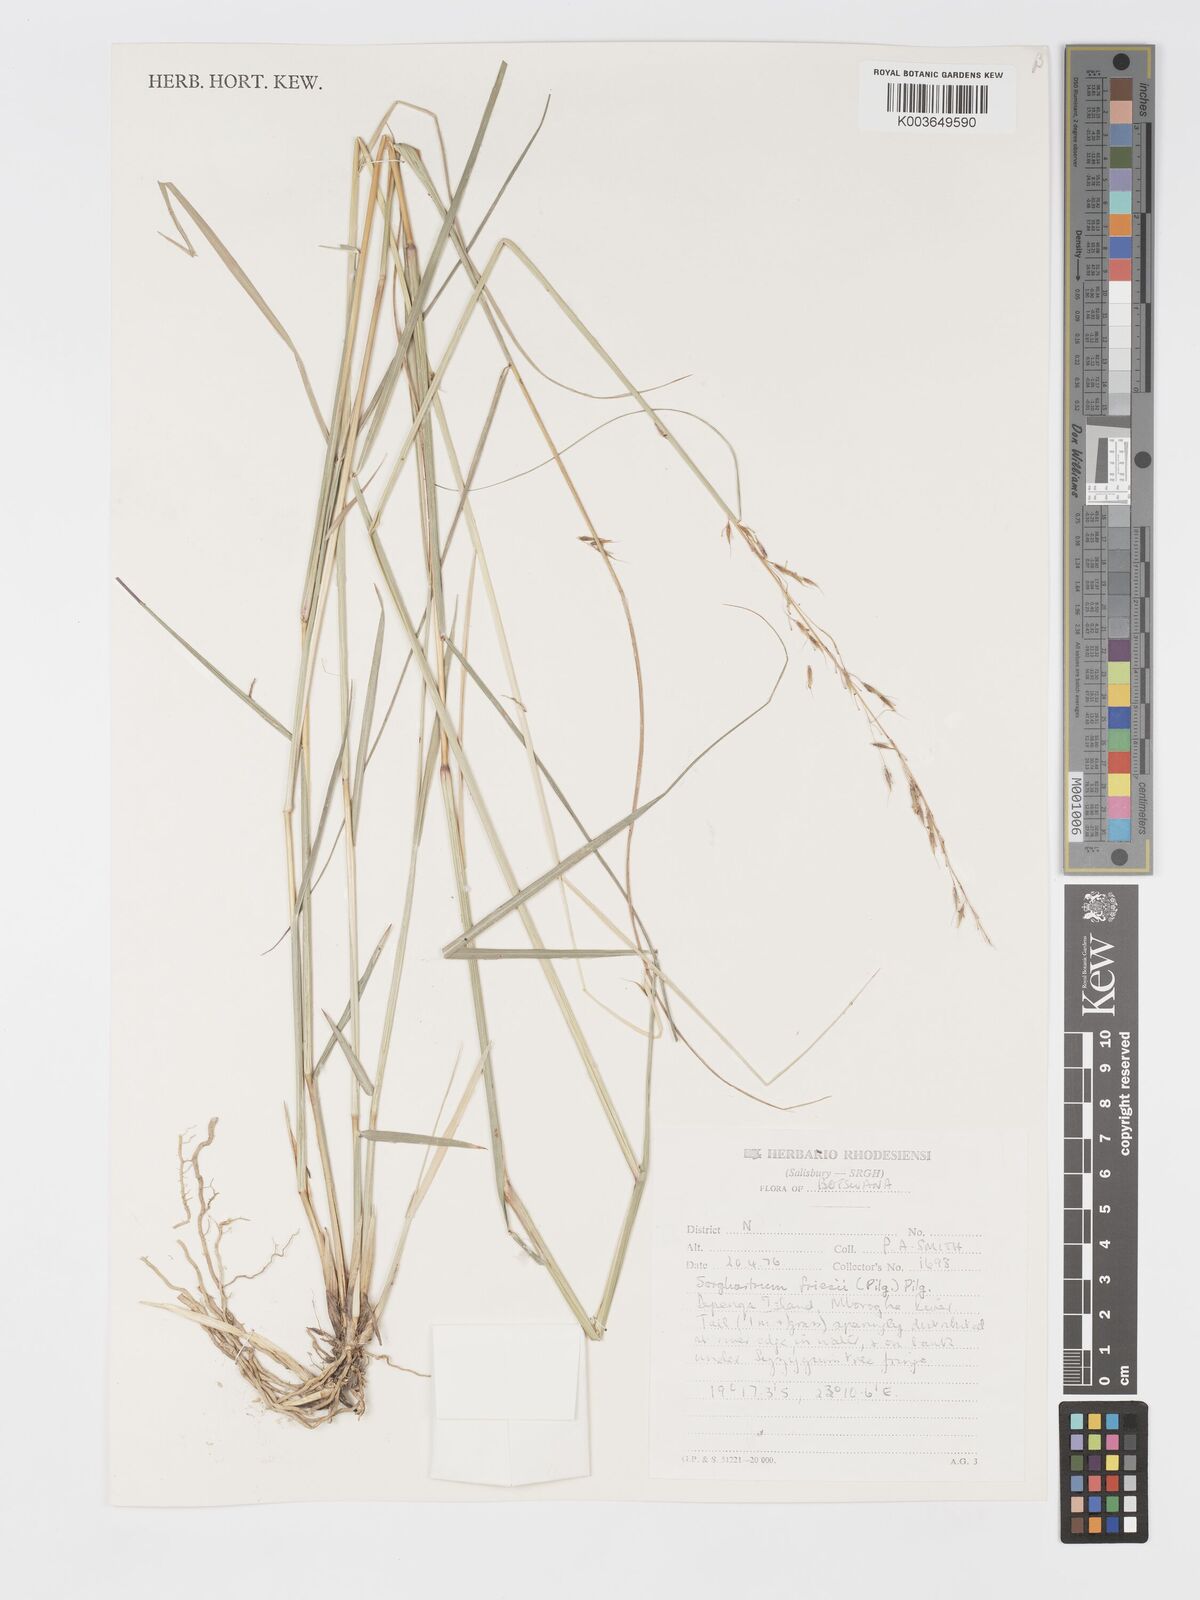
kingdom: Plantae
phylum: Tracheophyta
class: Liliopsida
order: Poales
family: Poaceae
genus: Sorghastrum
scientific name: Sorghastrum nudipes
